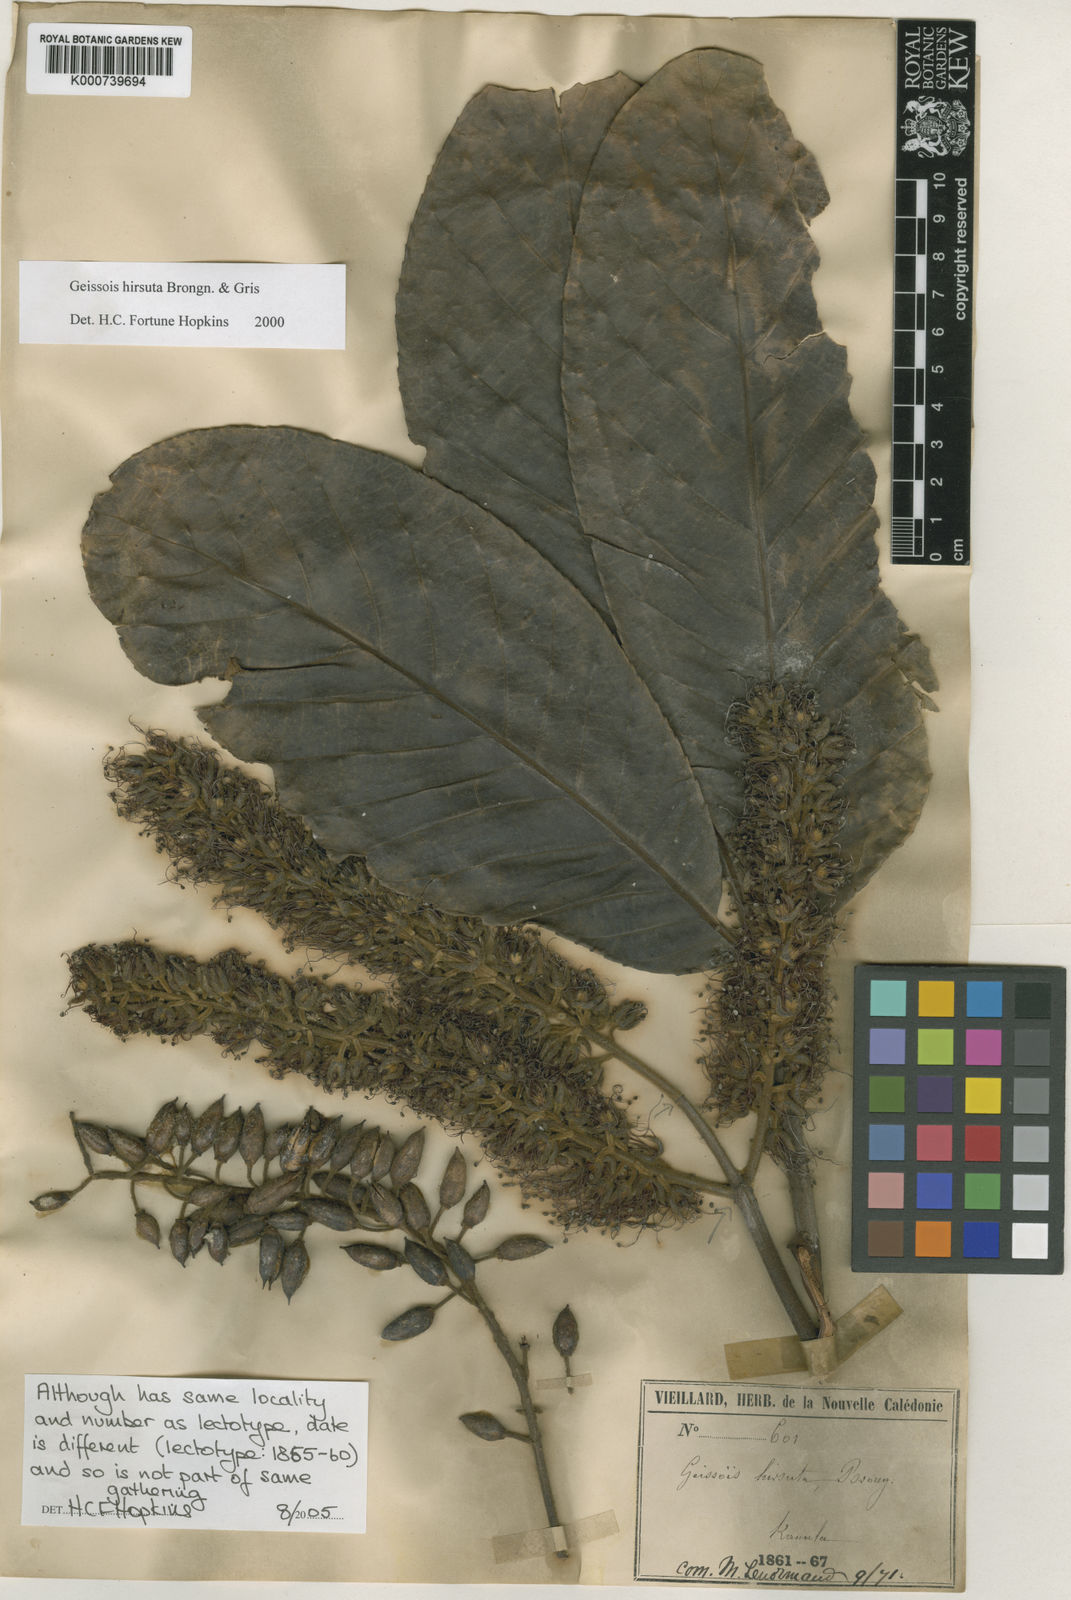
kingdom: Plantae
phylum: Tracheophyta
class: Magnoliopsida
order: Oxalidales
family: Cunoniaceae
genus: Geissois
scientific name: Geissois hirsuta
